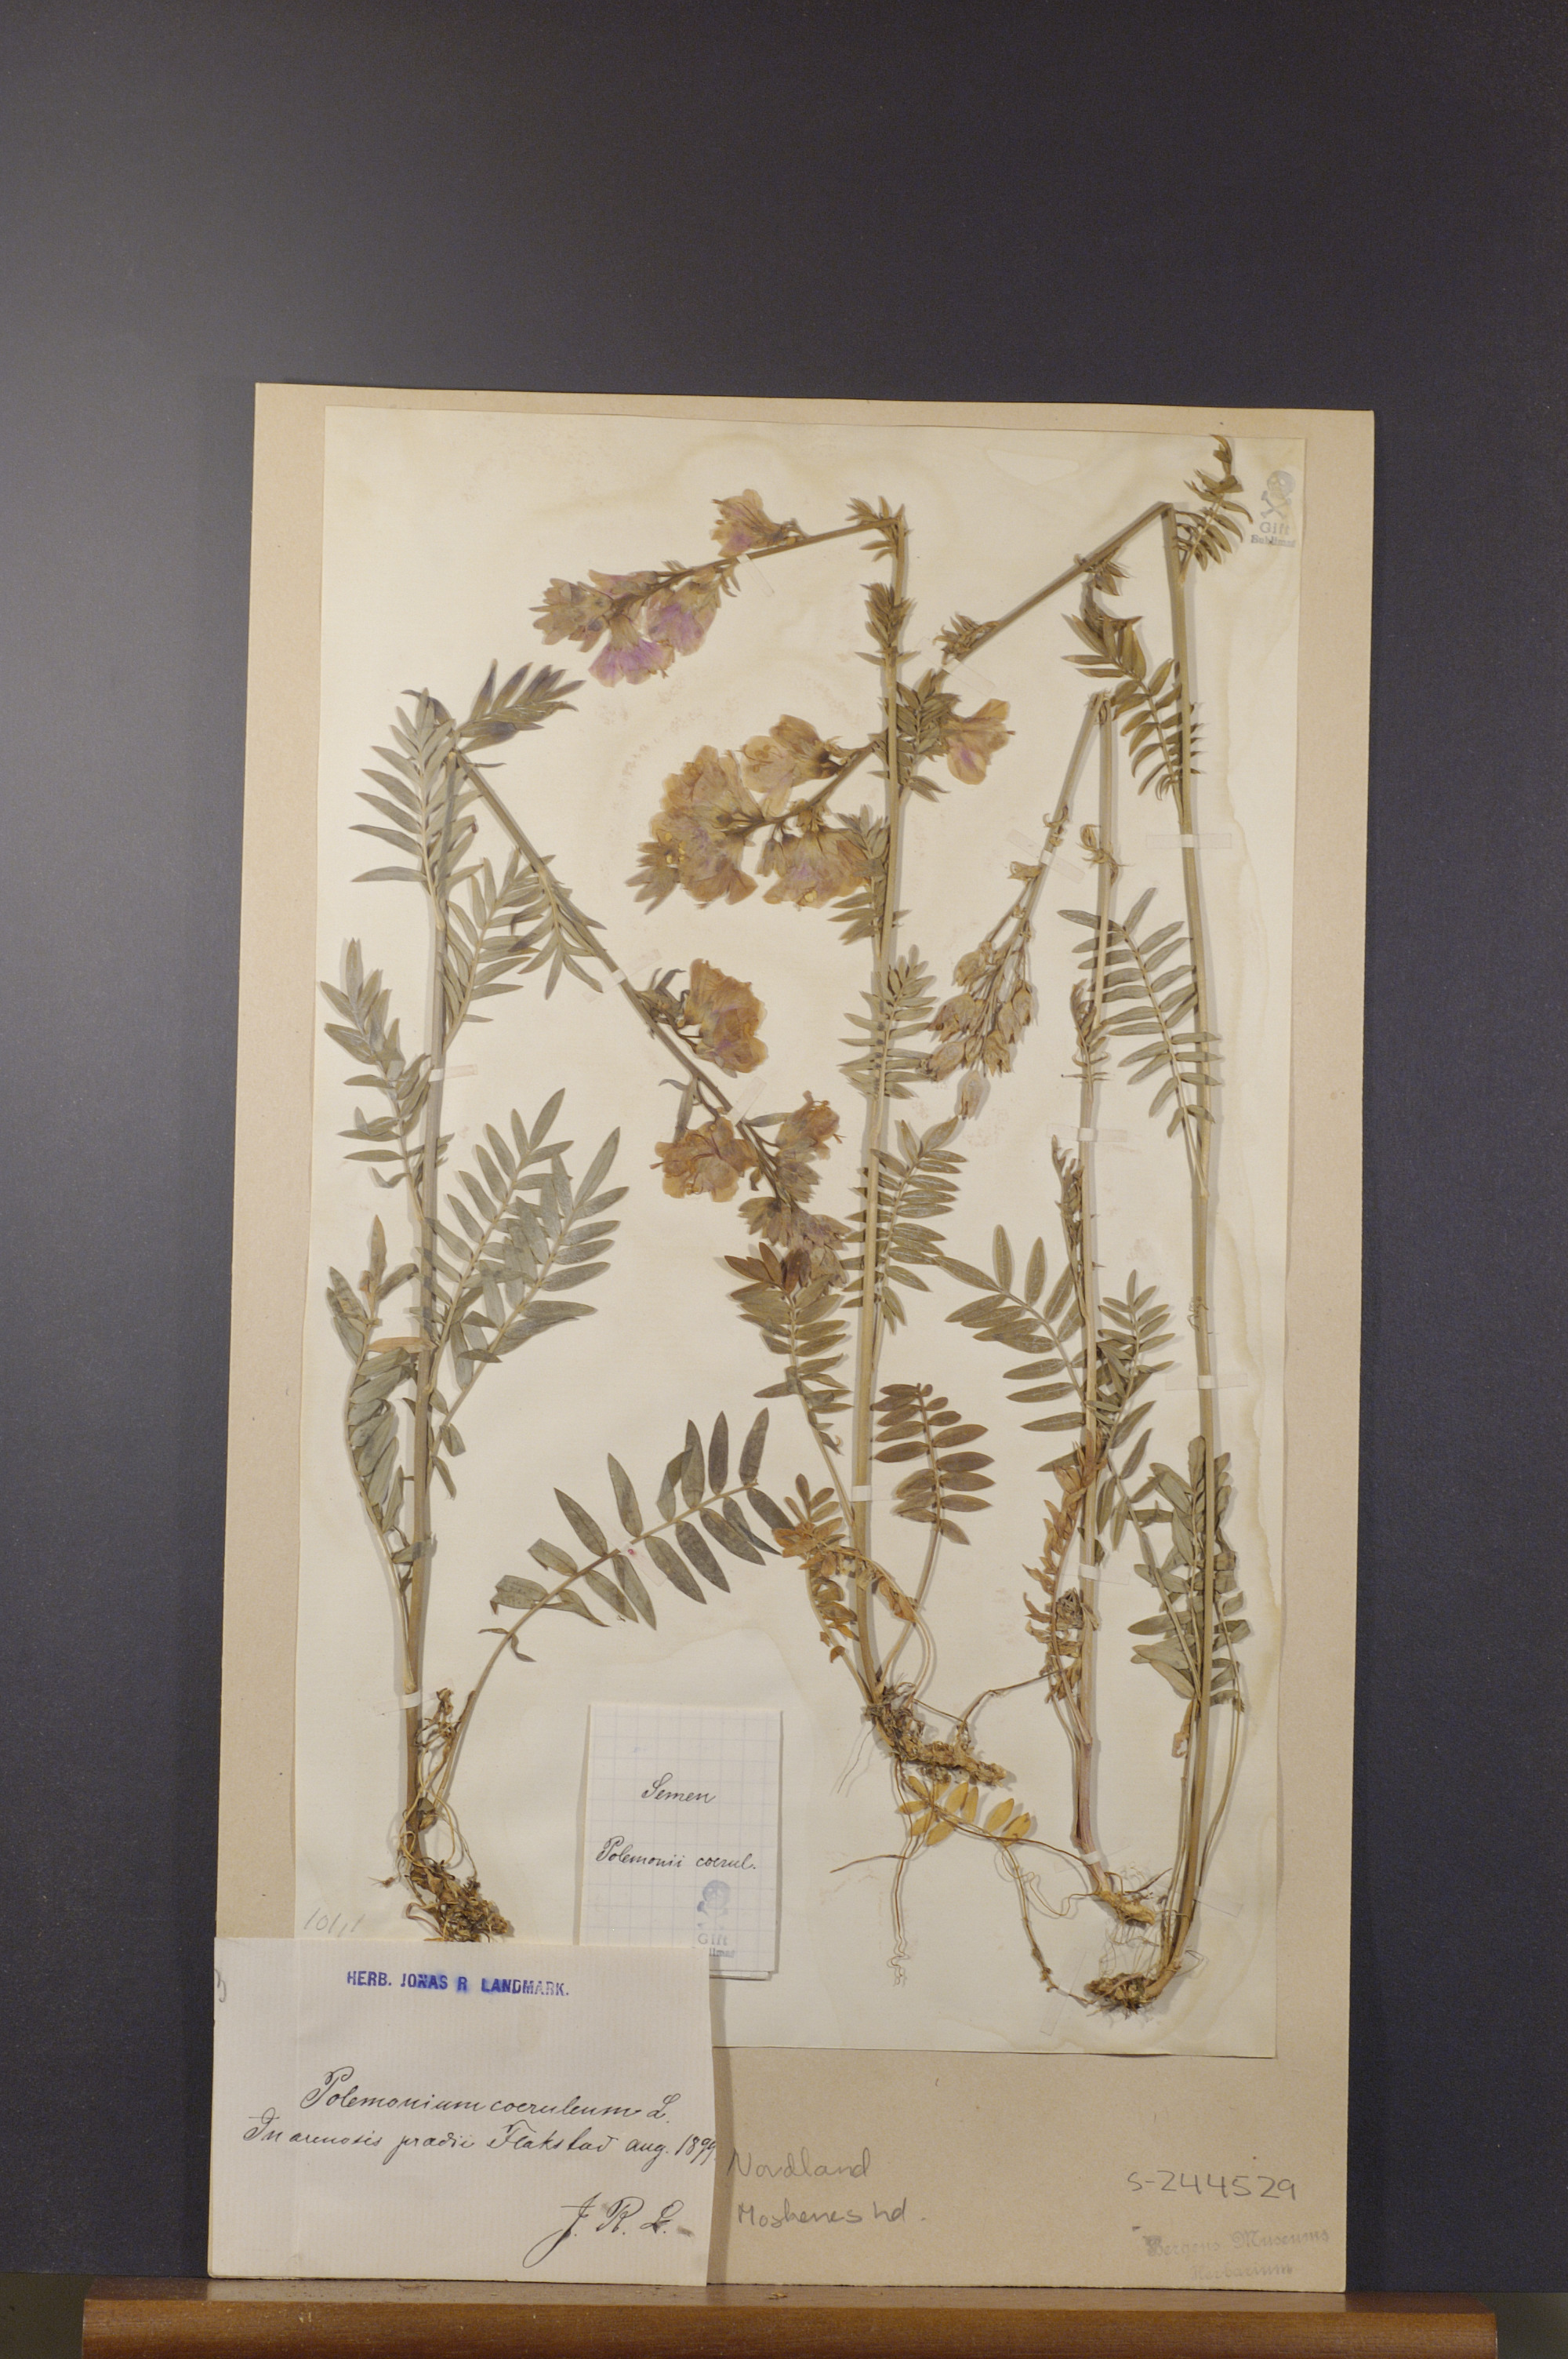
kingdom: Plantae
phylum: Tracheophyta
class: Magnoliopsida
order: Ericales
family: Polemoniaceae
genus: Polemonium
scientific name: Polemonium caeruleum
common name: Jacob's-ladder
